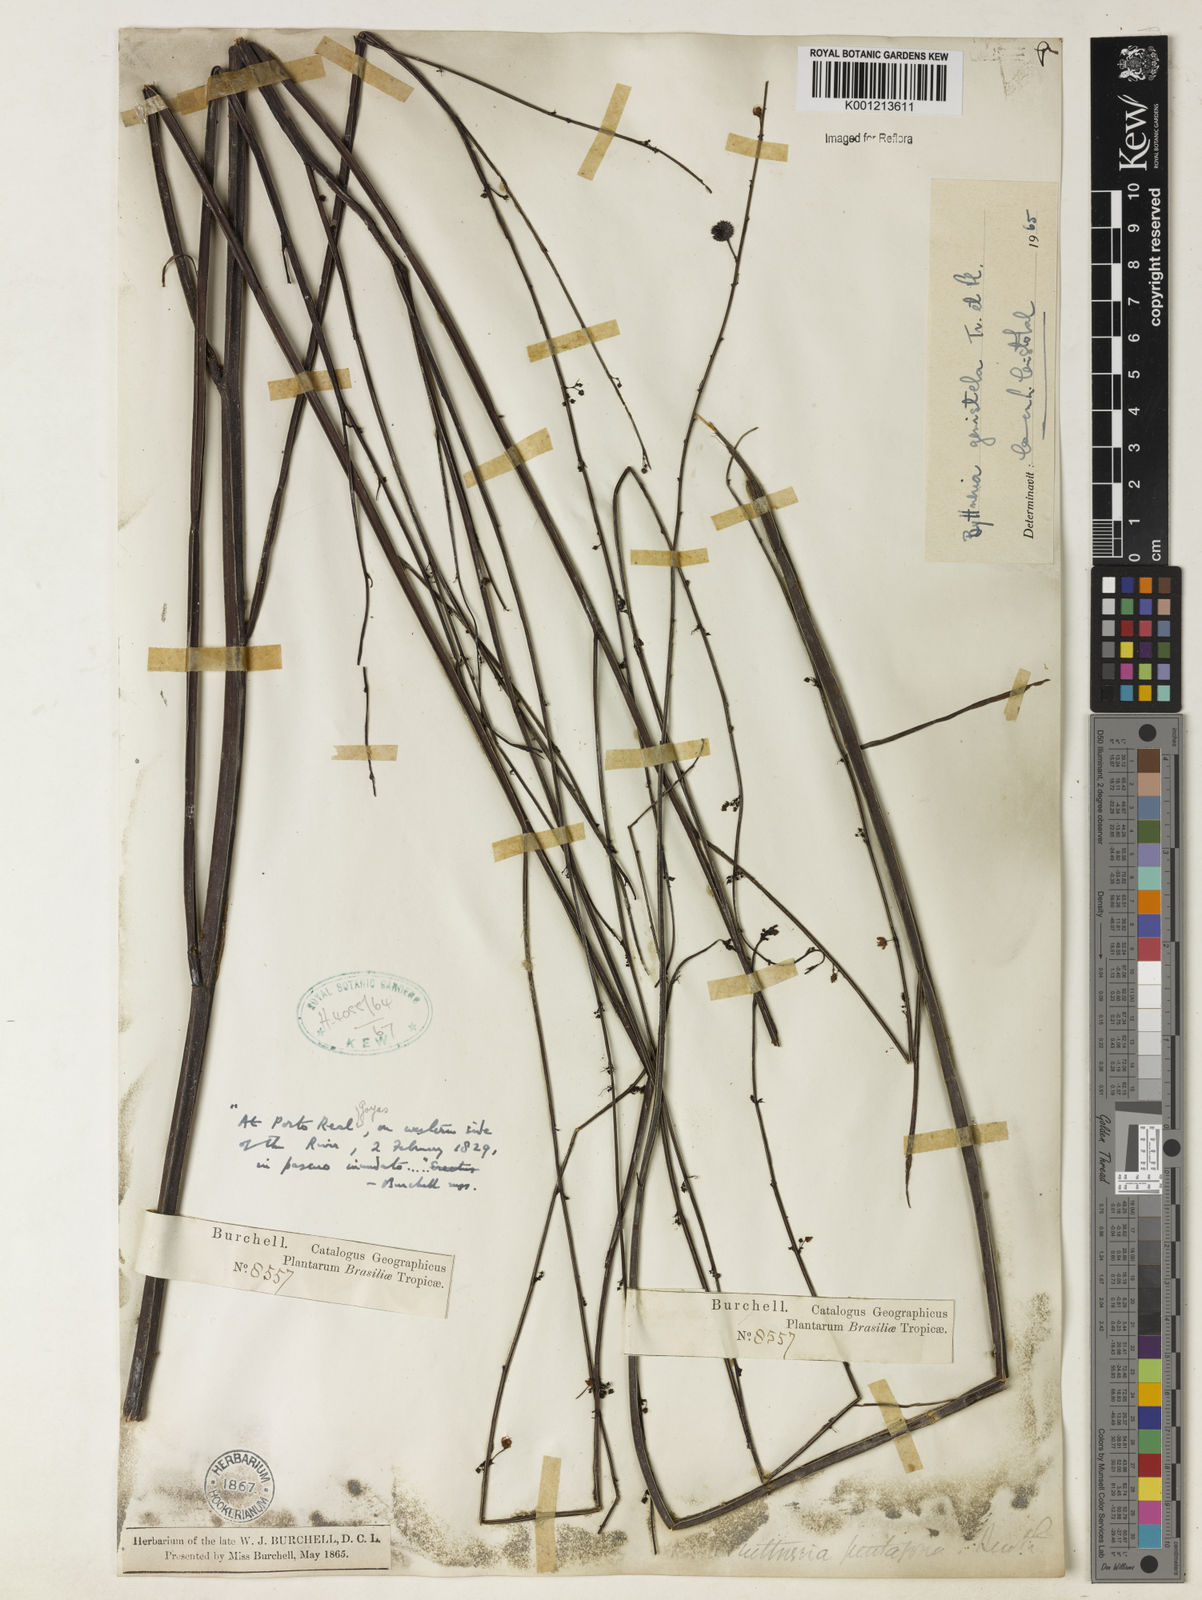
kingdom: Plantae
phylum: Tracheophyta
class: Magnoliopsida
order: Malvales
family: Malvaceae
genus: Byttneria
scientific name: Byttneria jaculifolia
